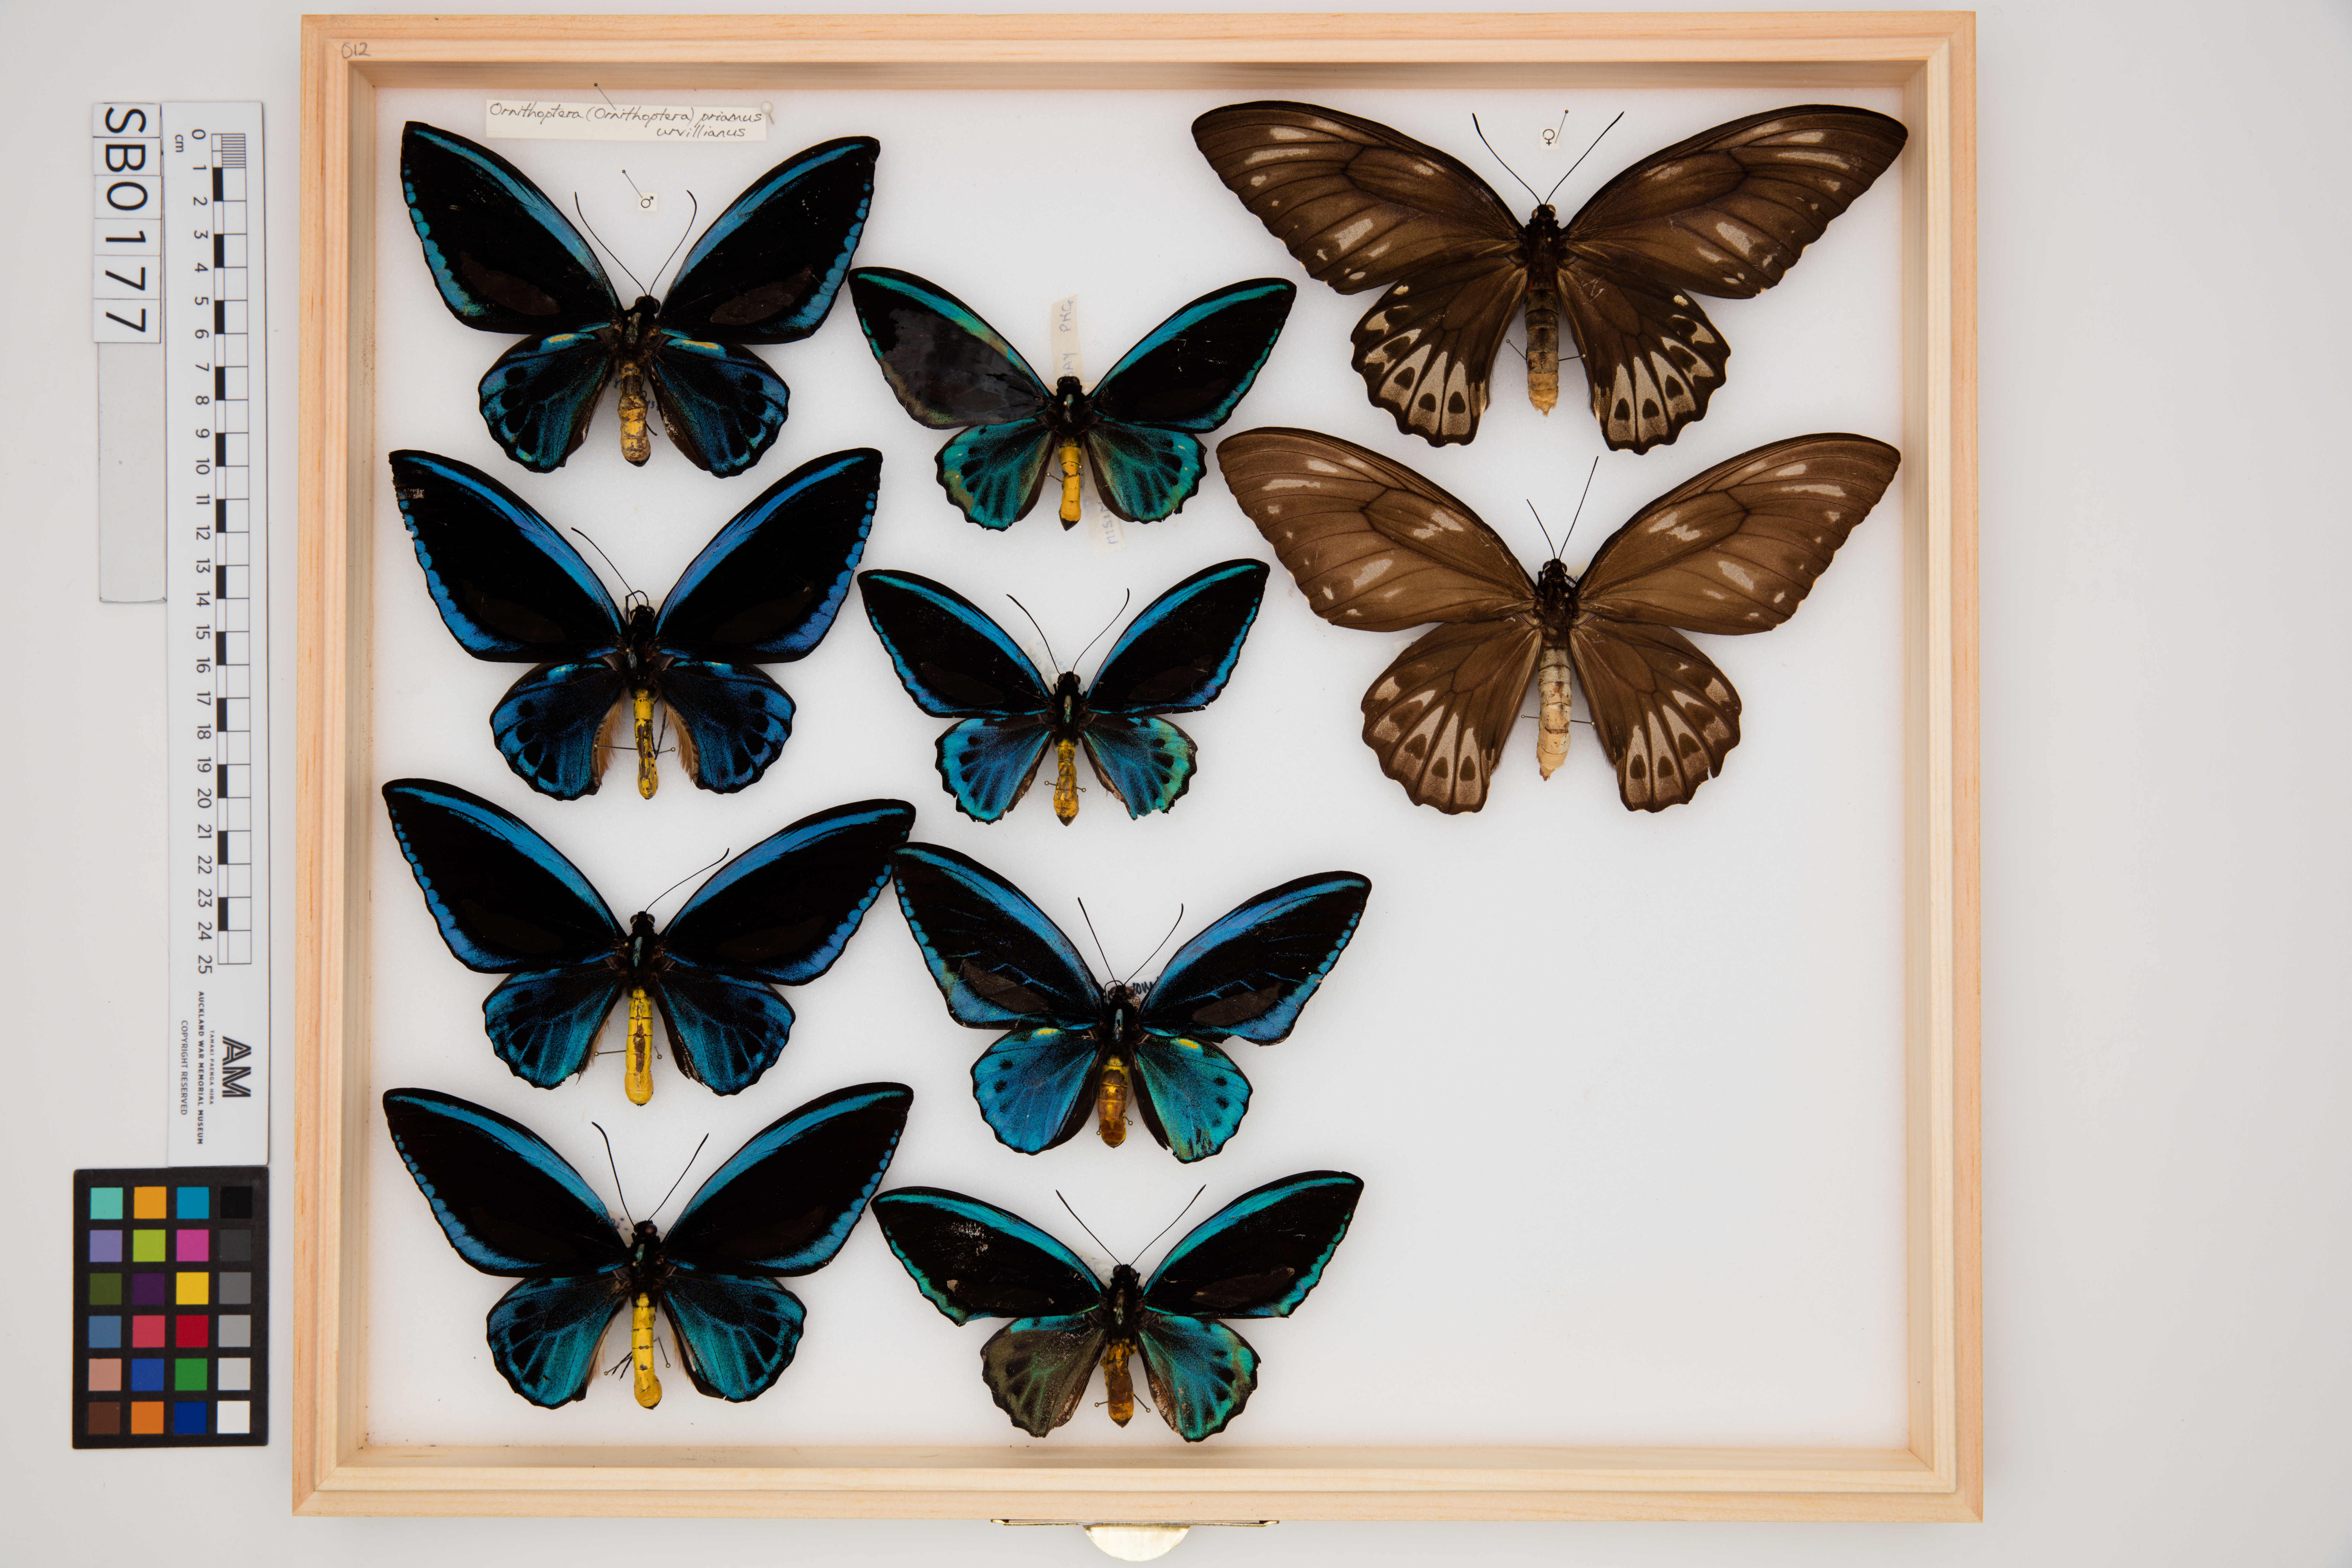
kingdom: Animalia
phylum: Arthropoda
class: Insecta
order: Lepidoptera
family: Papilionidae
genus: Ornithoptera
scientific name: Ornithoptera priamus
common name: Cape york birdwing
